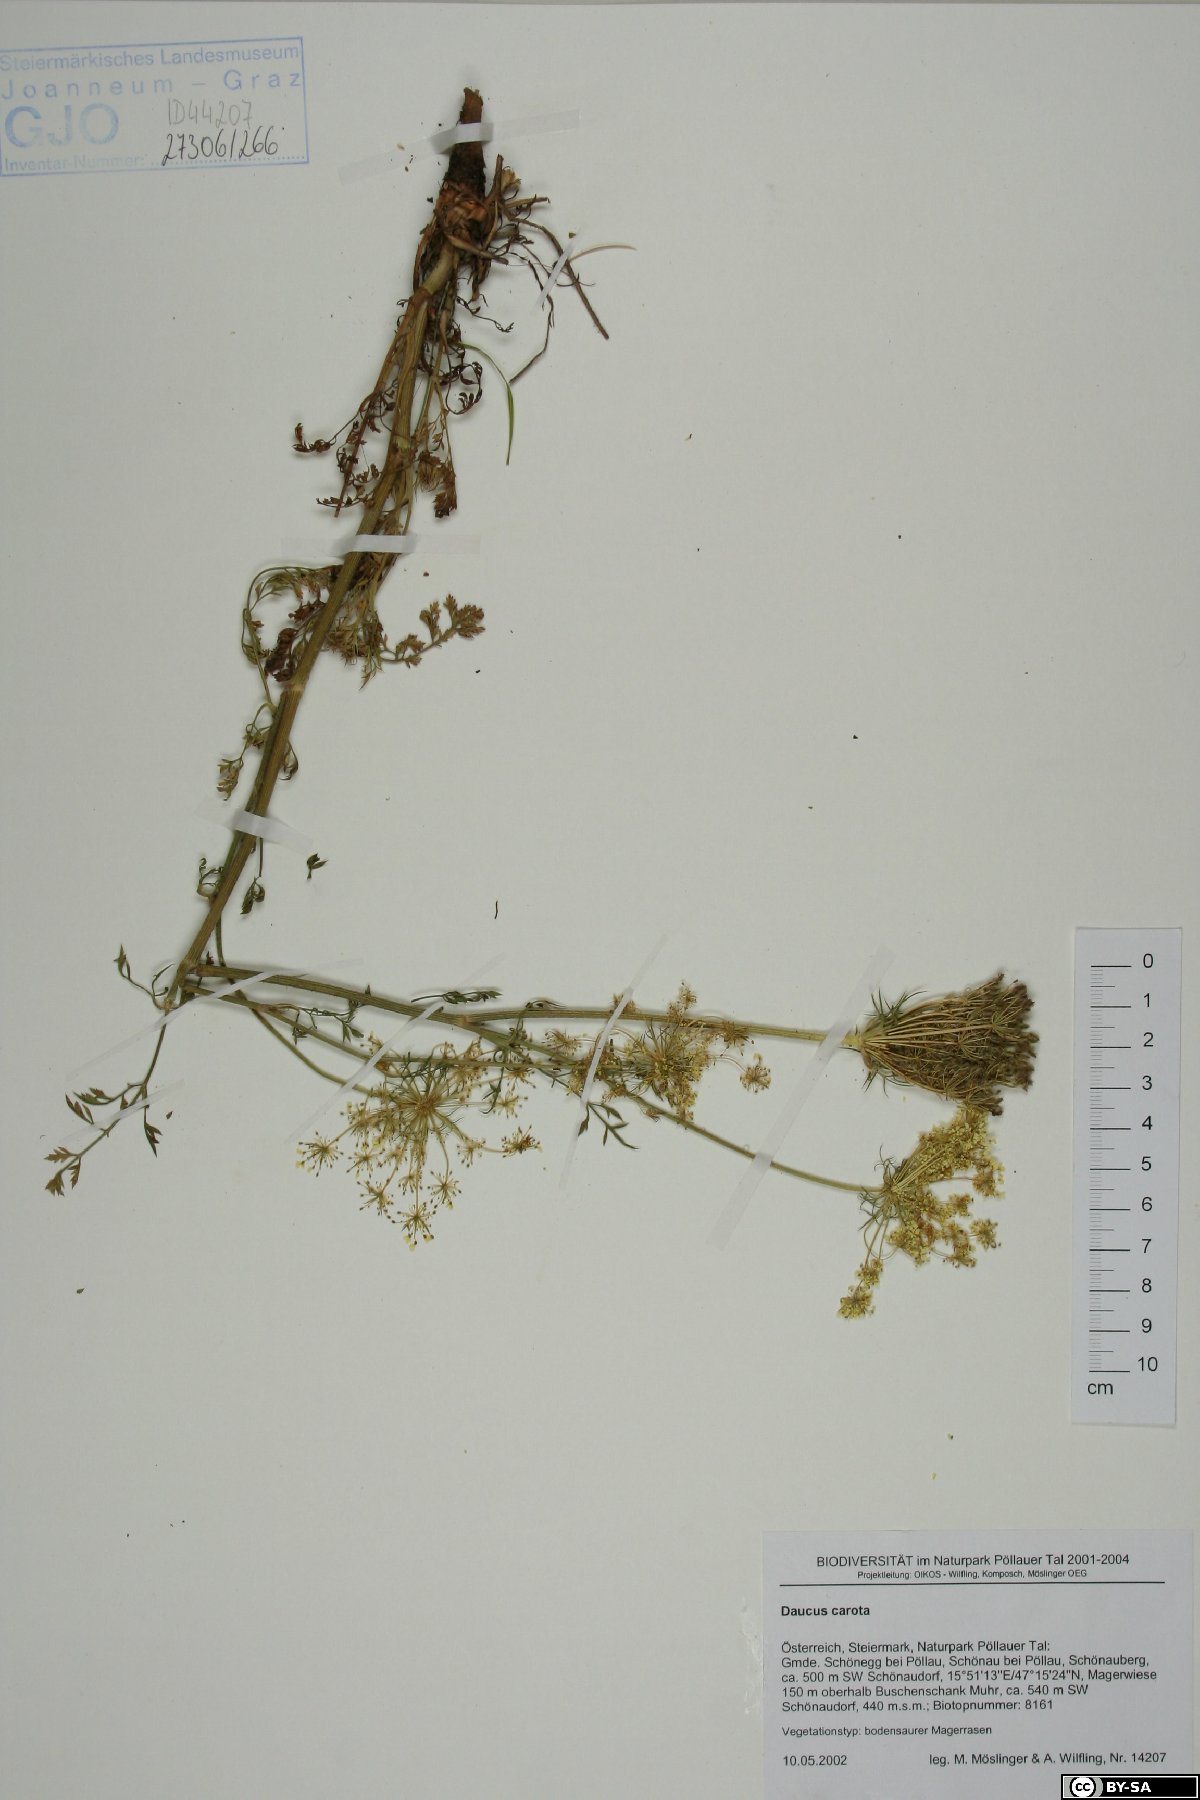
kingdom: Plantae
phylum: Tracheophyta
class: Magnoliopsida
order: Apiales
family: Apiaceae
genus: Daucus
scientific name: Daucus carota
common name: Wild carrot
